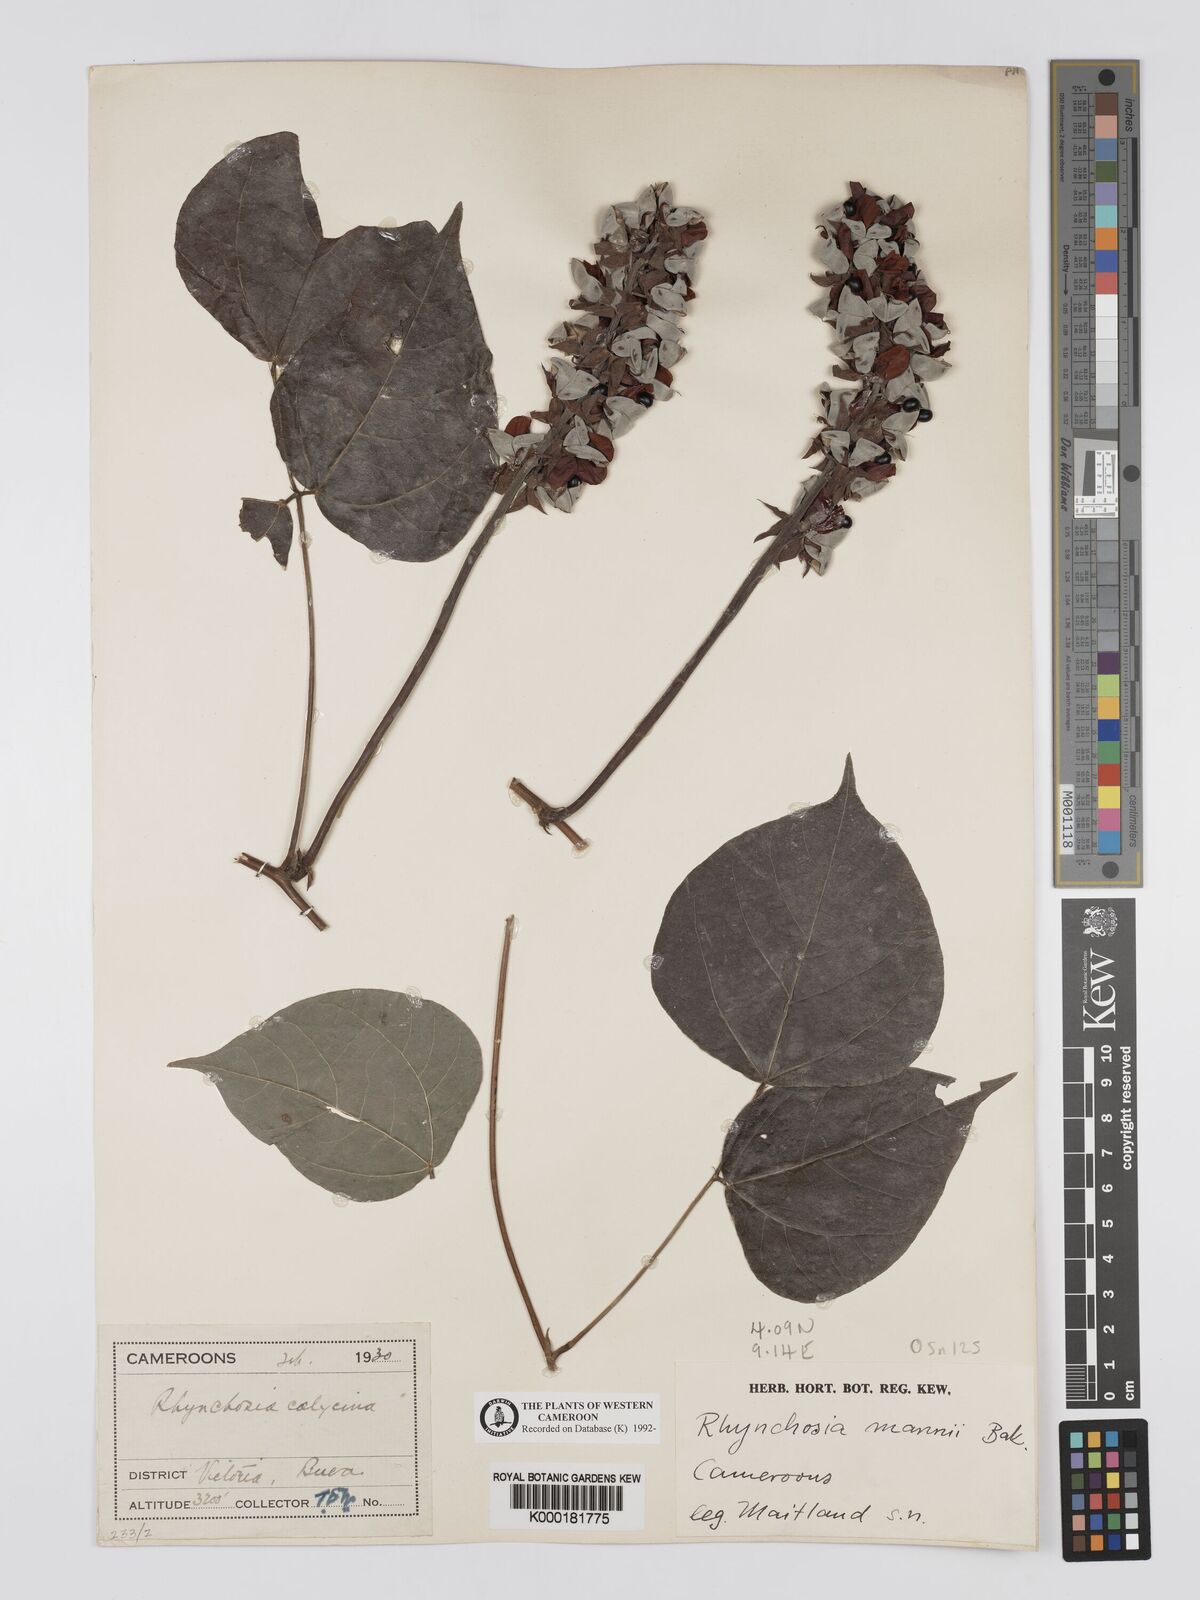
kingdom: Plantae
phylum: Tracheophyta
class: Magnoliopsida
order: Fabales
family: Fabaceae
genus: Rhynchosia
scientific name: Rhynchosia mannii
